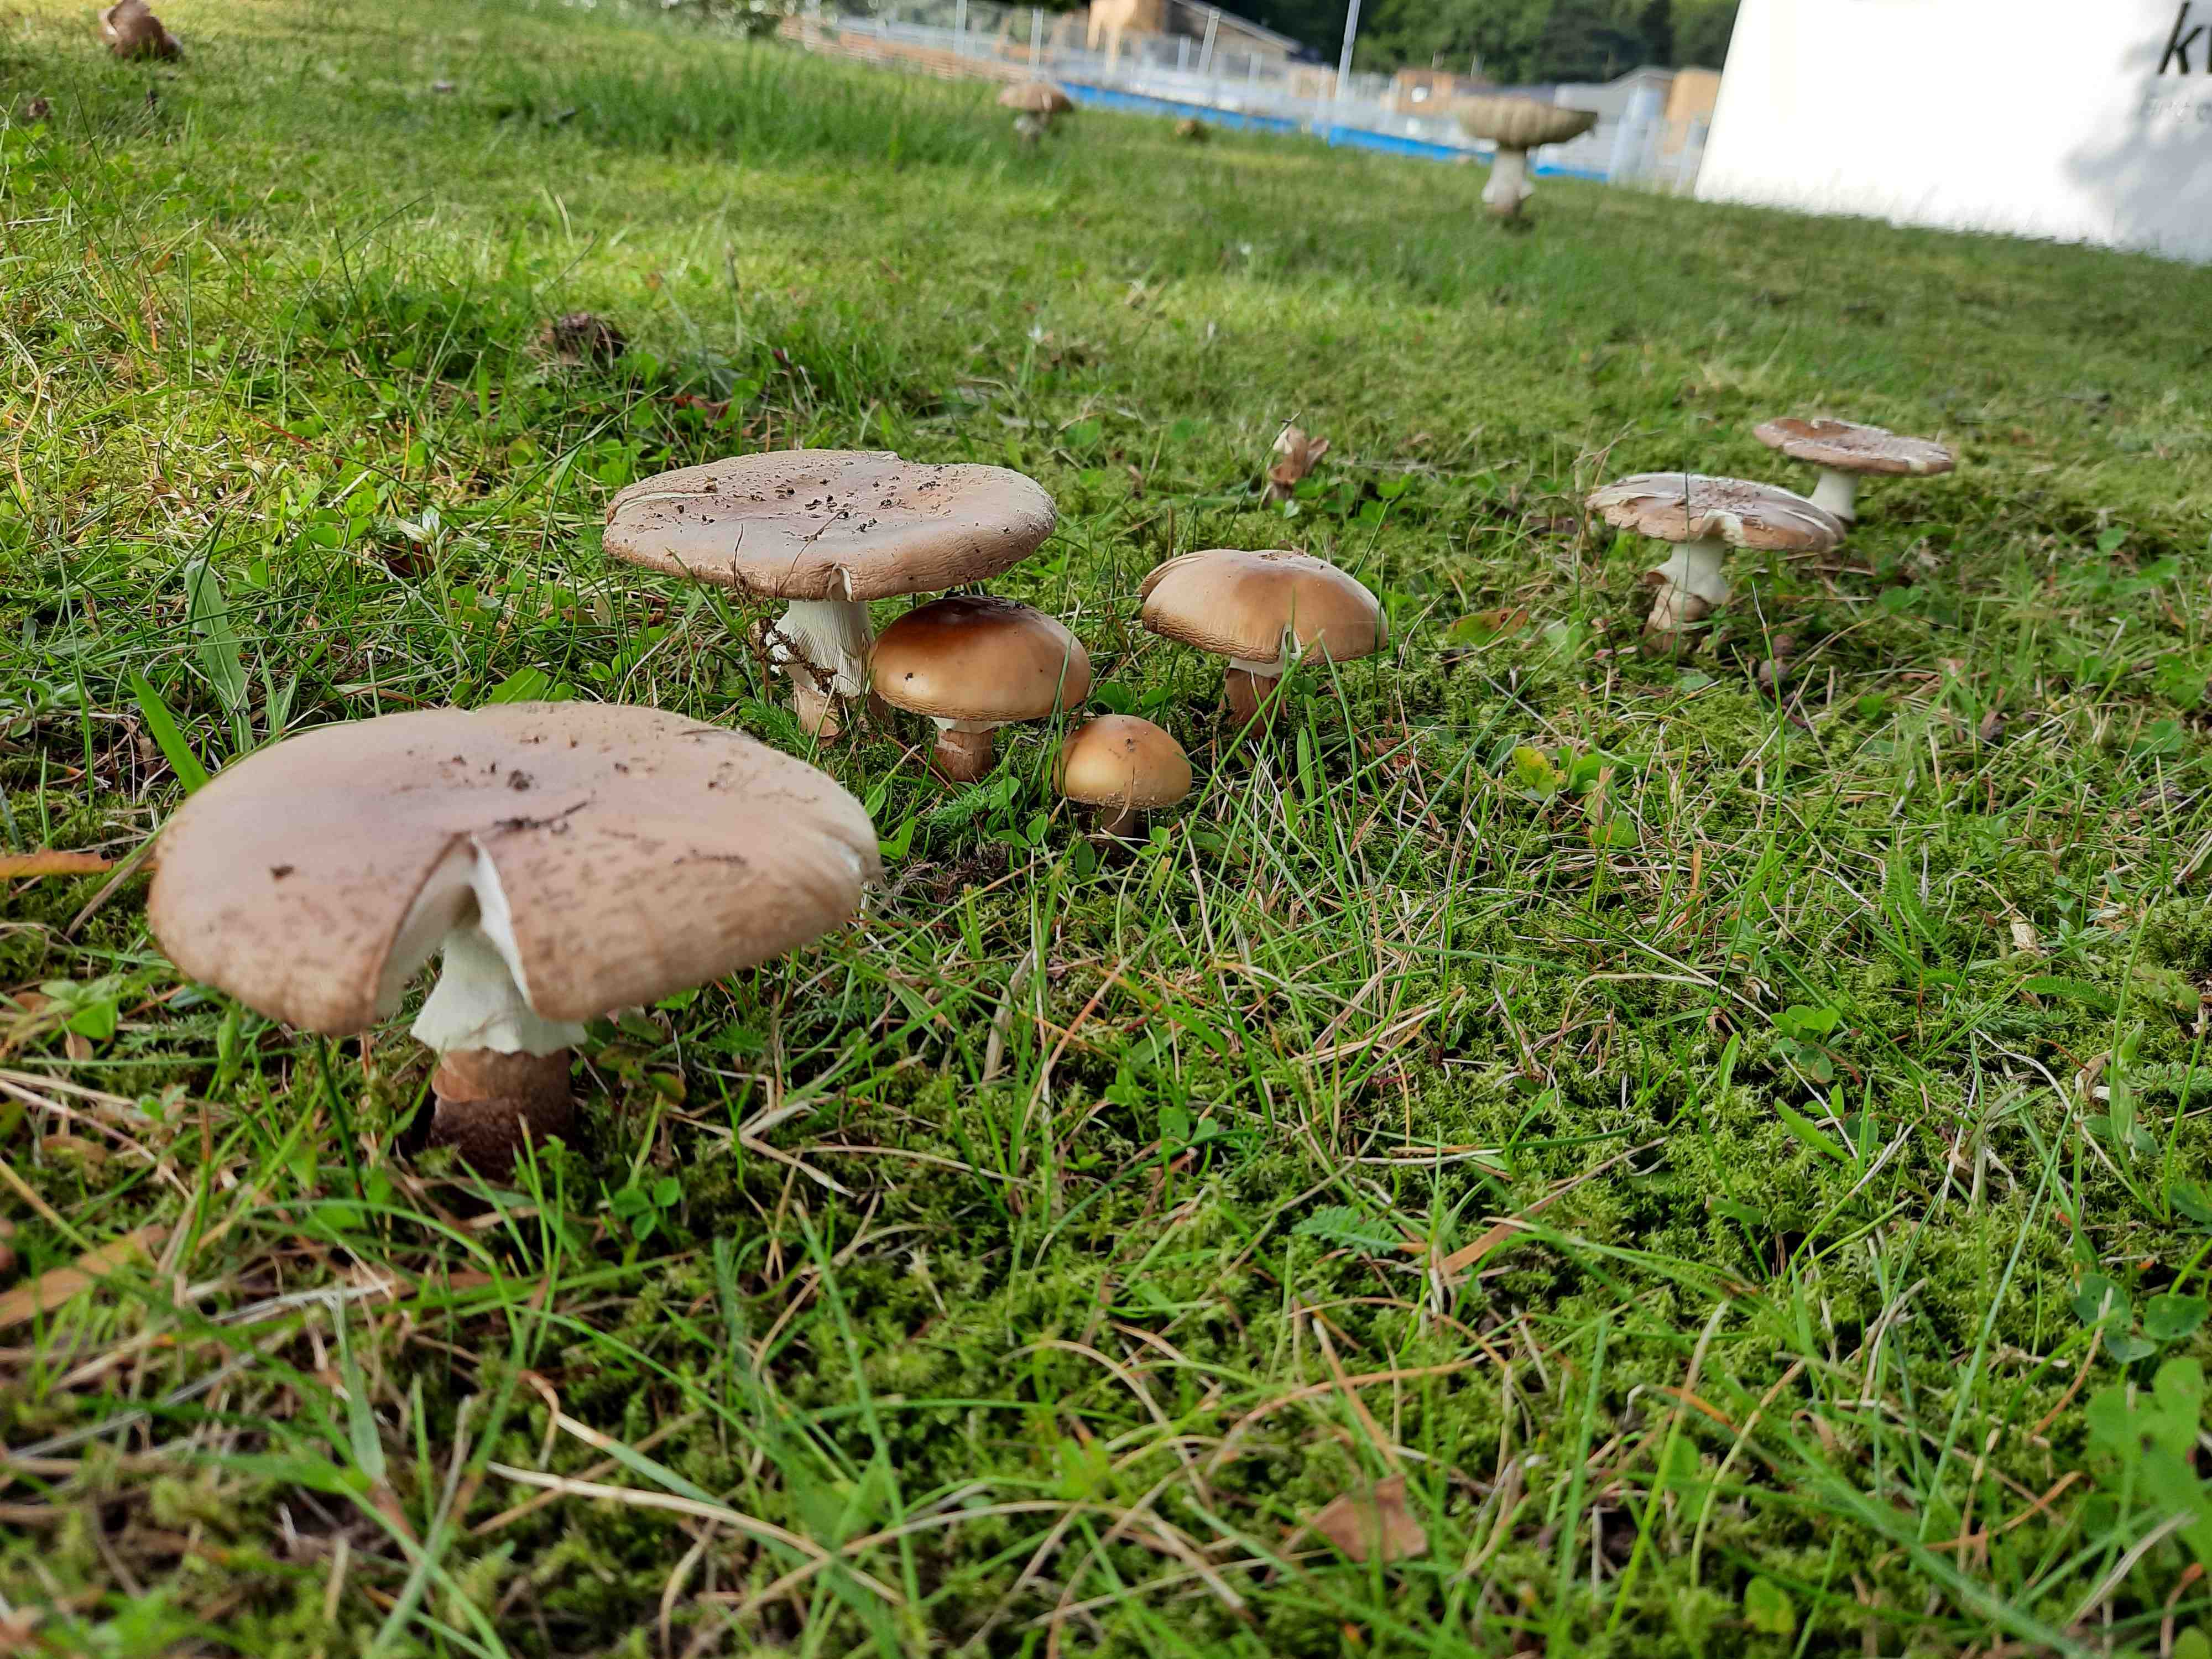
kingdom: Fungi
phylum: Basidiomycota
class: Agaricomycetes
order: Agaricales
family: Amanitaceae
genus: Amanita
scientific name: Amanita rubescens
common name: rødmende fluesvamp
